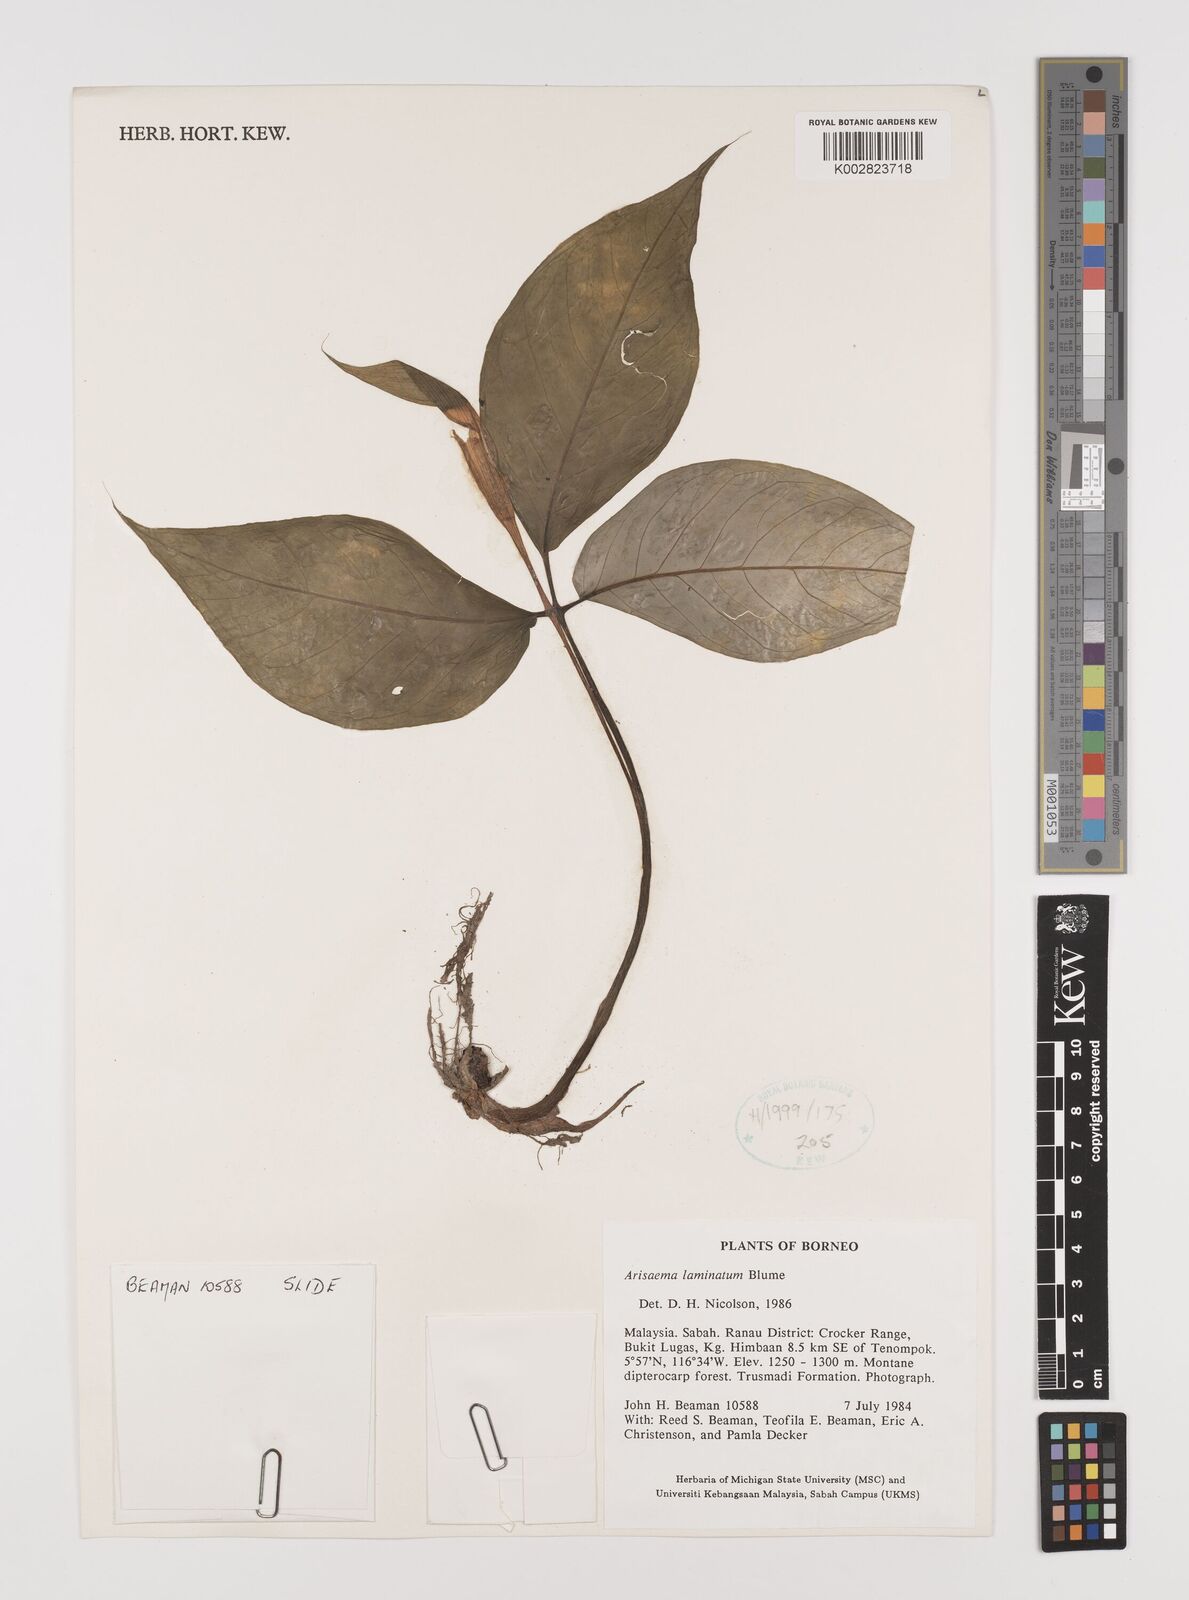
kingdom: Plantae
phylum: Tracheophyta
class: Liliopsida
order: Alismatales
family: Araceae
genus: Arisaema
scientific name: Arisaema laminatum
